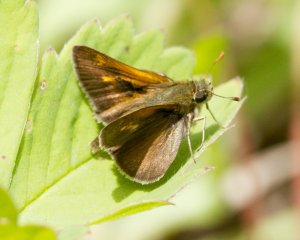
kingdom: Animalia
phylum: Arthropoda
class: Insecta
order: Lepidoptera
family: Hesperiidae
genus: Polites
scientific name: Polites themistocles
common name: Tawny-edged Skipper
